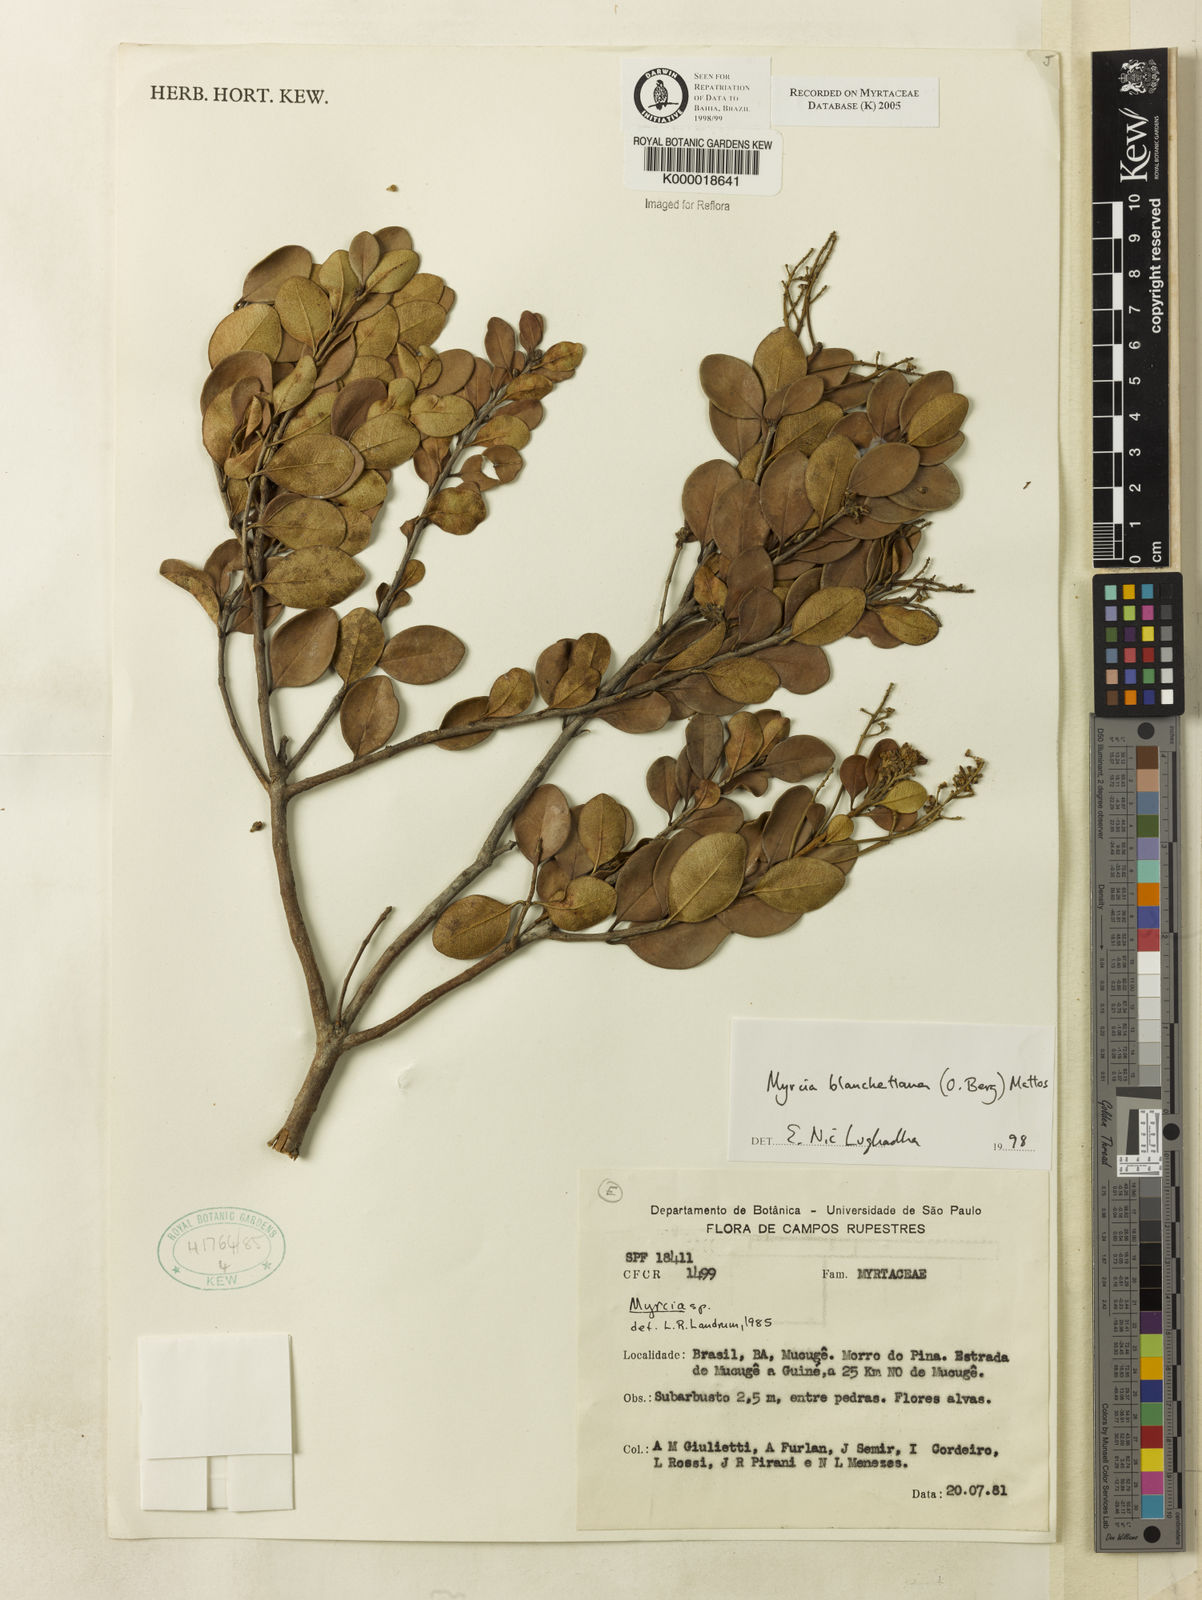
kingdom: Plantae
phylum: Tracheophyta
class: Magnoliopsida
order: Myrtales
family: Myrtaceae
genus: Myrcia
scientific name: Myrcia blanchetiana
